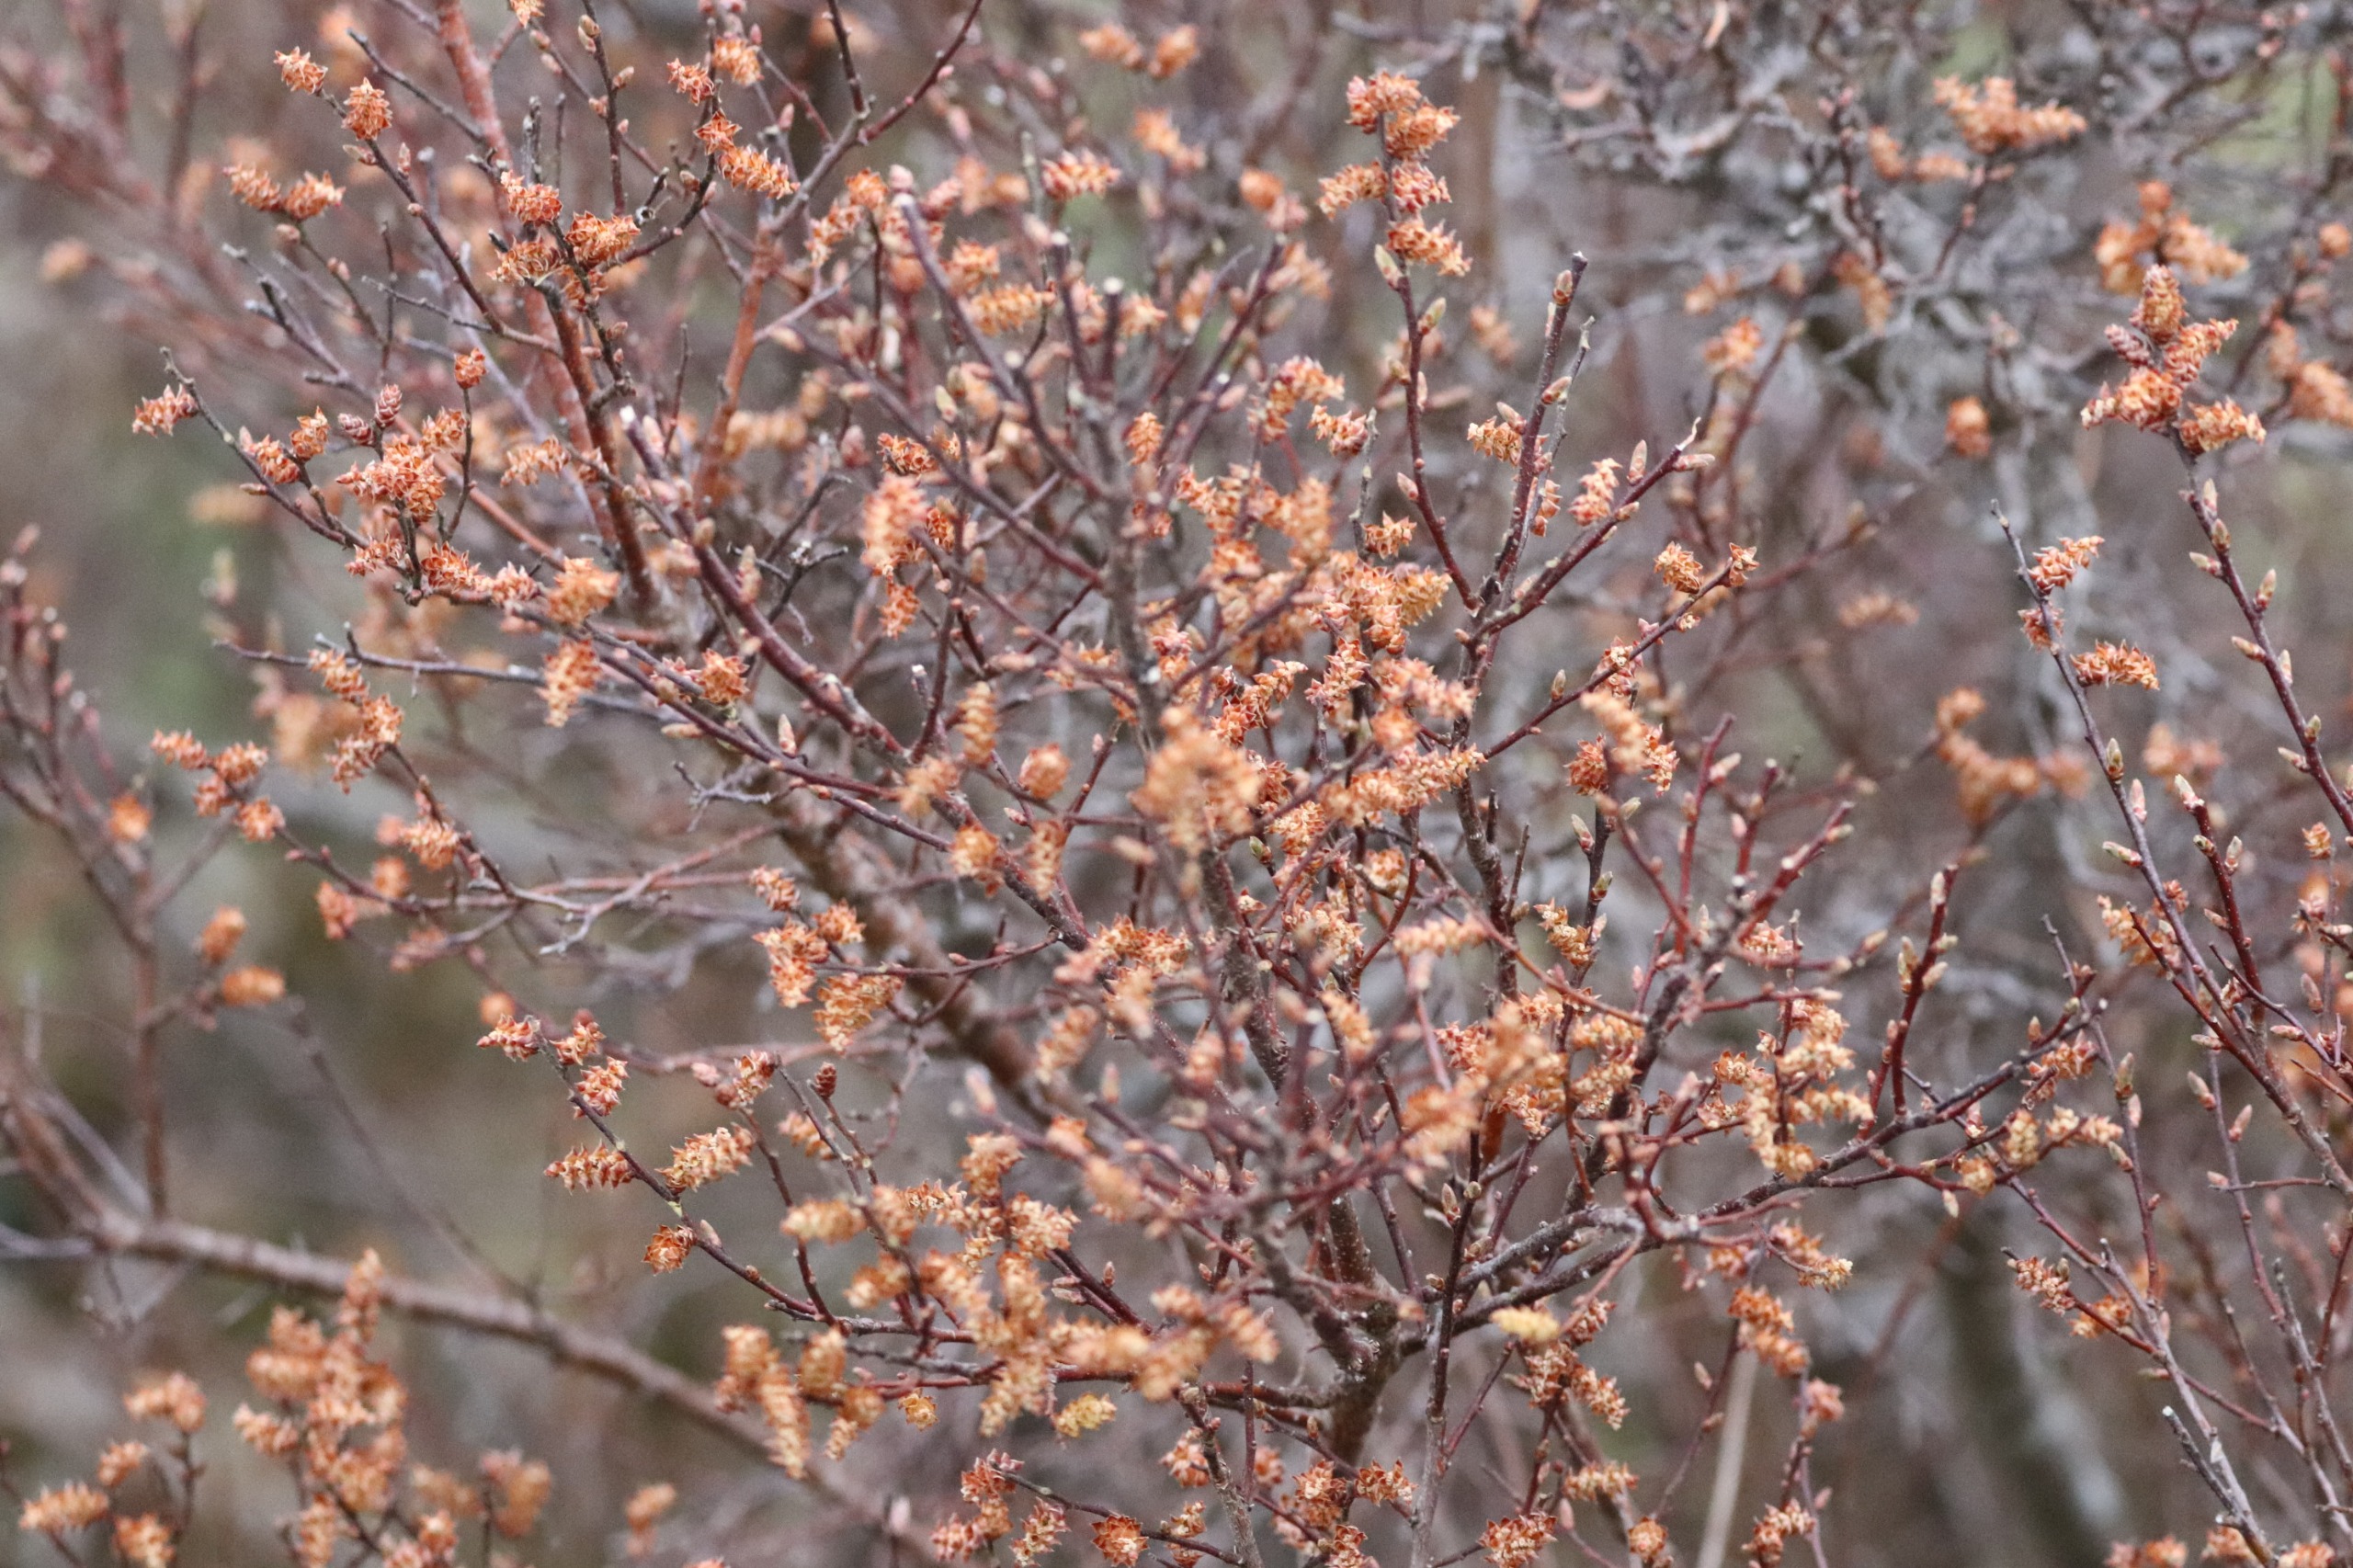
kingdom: Plantae
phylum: Tracheophyta
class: Magnoliopsida
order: Fagales
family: Myricaceae
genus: Myrica
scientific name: Myrica gale
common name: Pors
